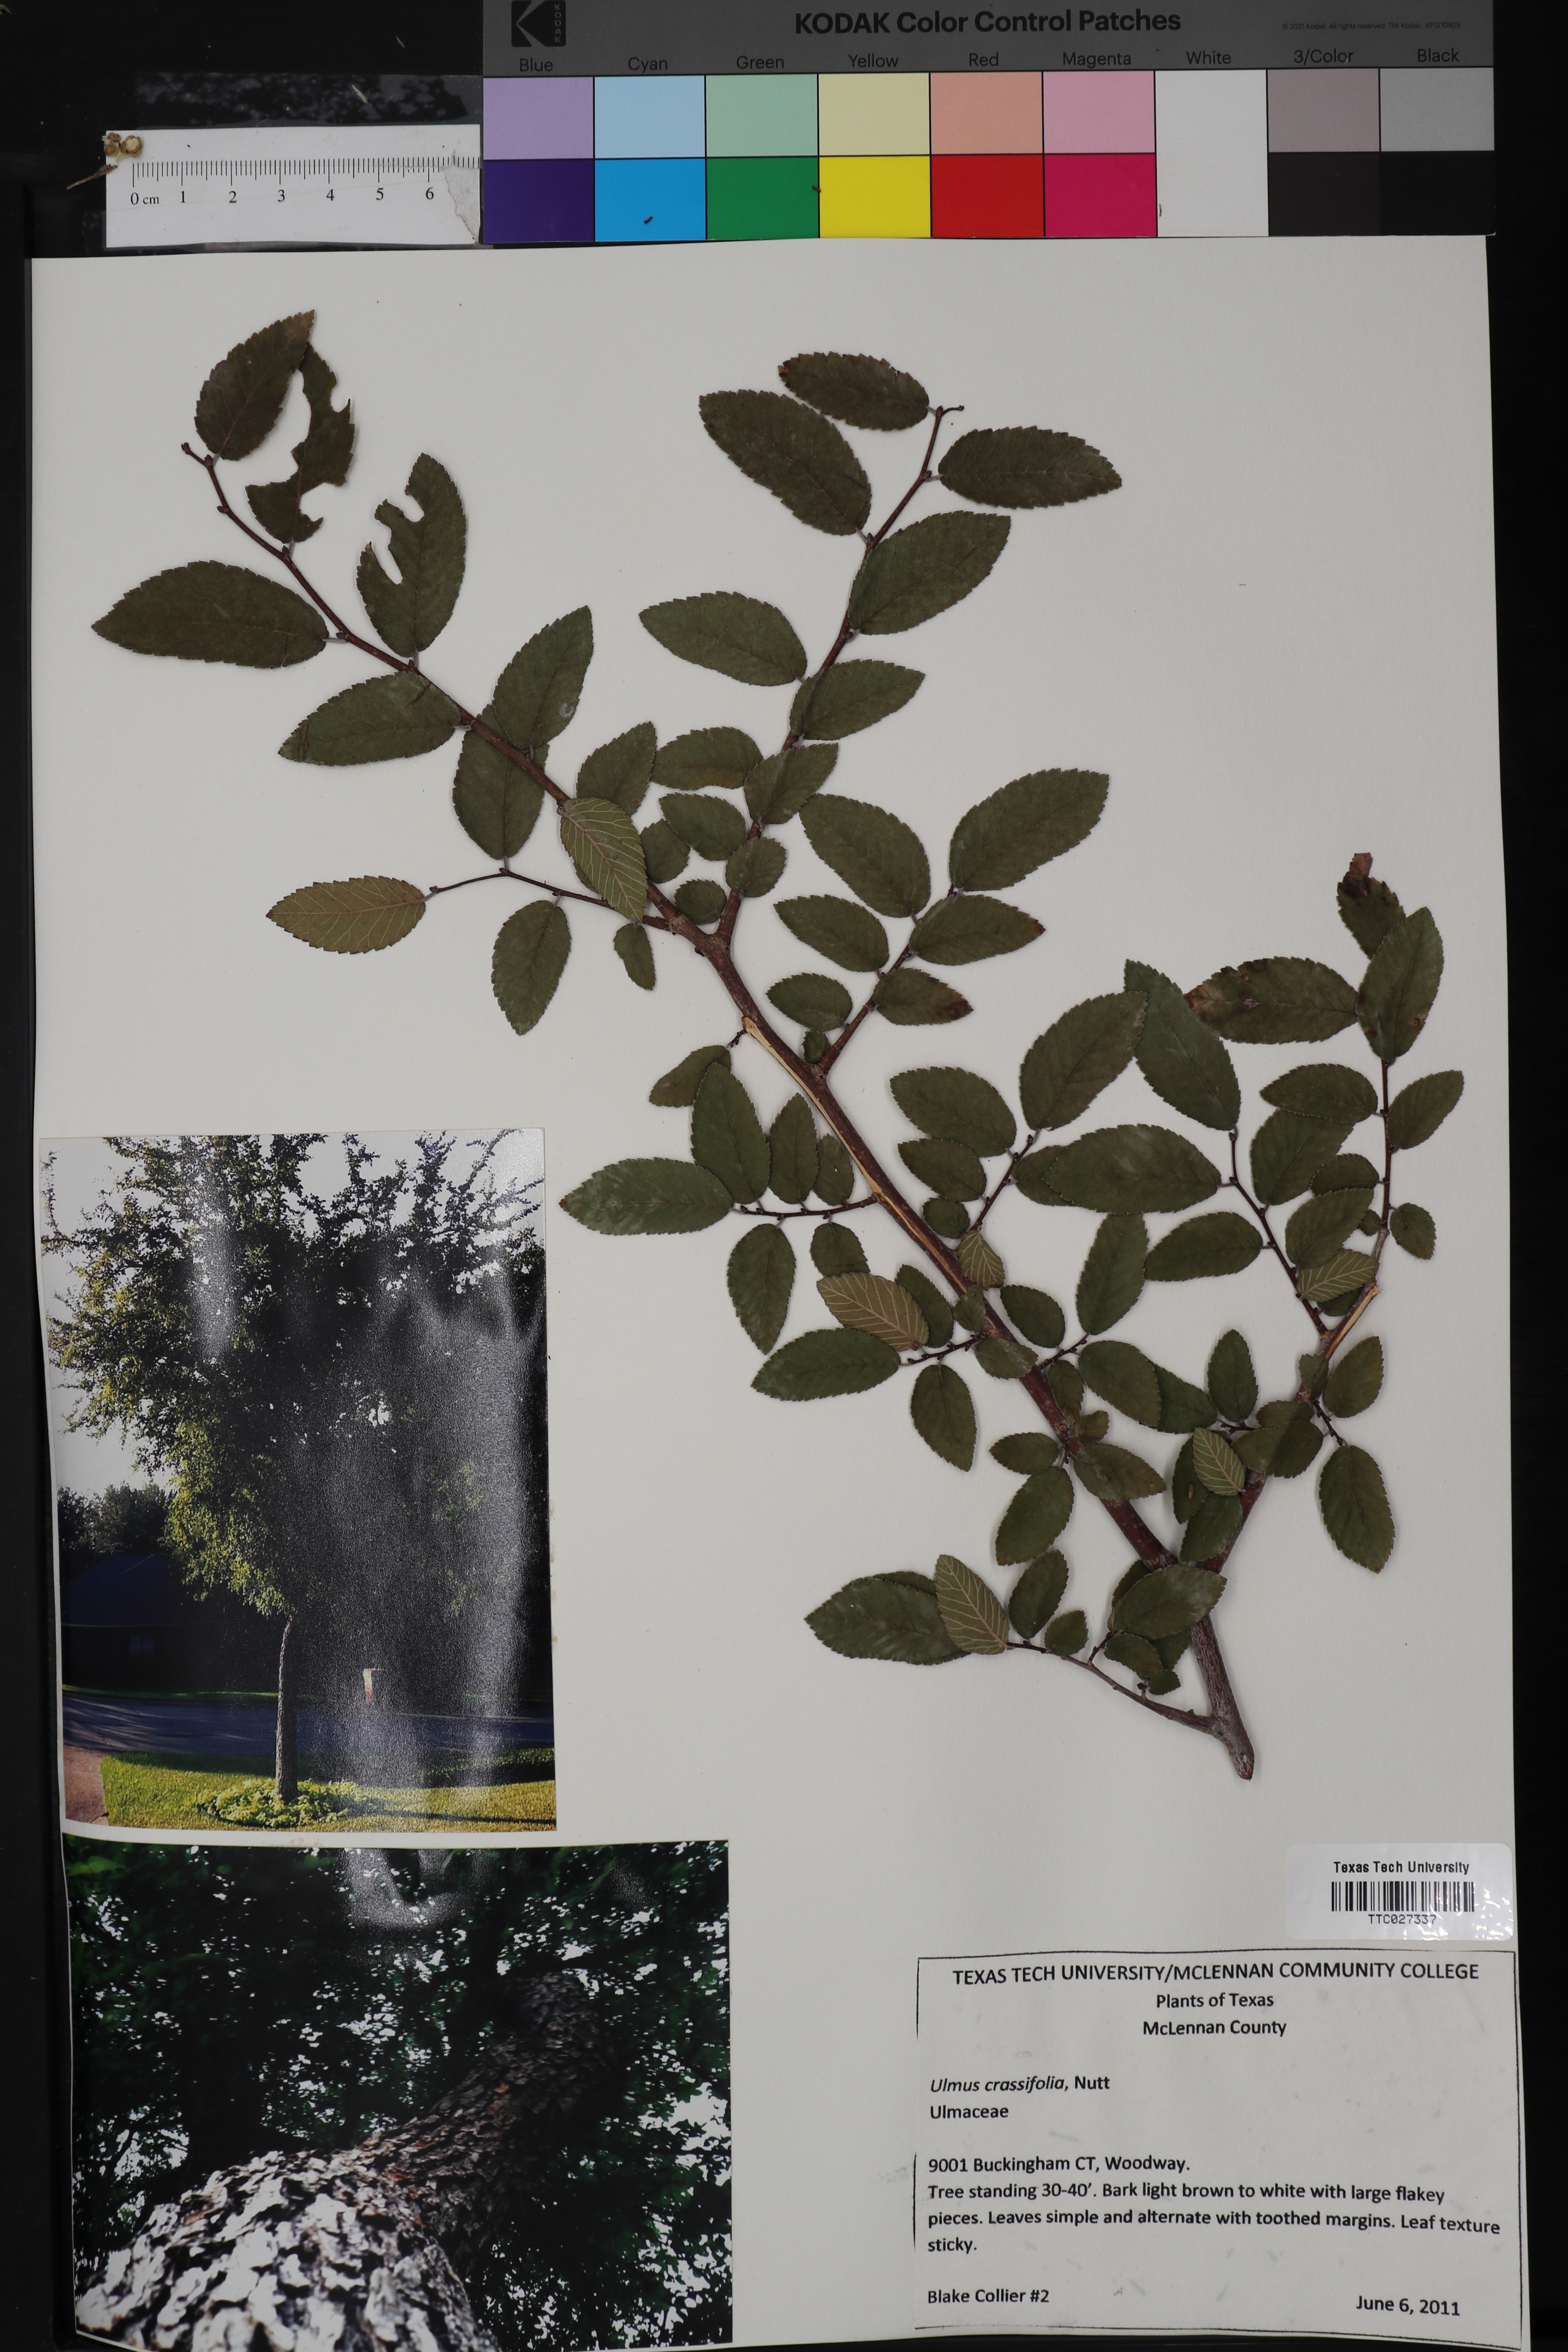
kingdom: Plantae
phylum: Tracheophyta
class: Magnoliopsida
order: Rosales
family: Ulmaceae
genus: Ulmus
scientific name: Ulmus crassifolia
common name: Basket elm
